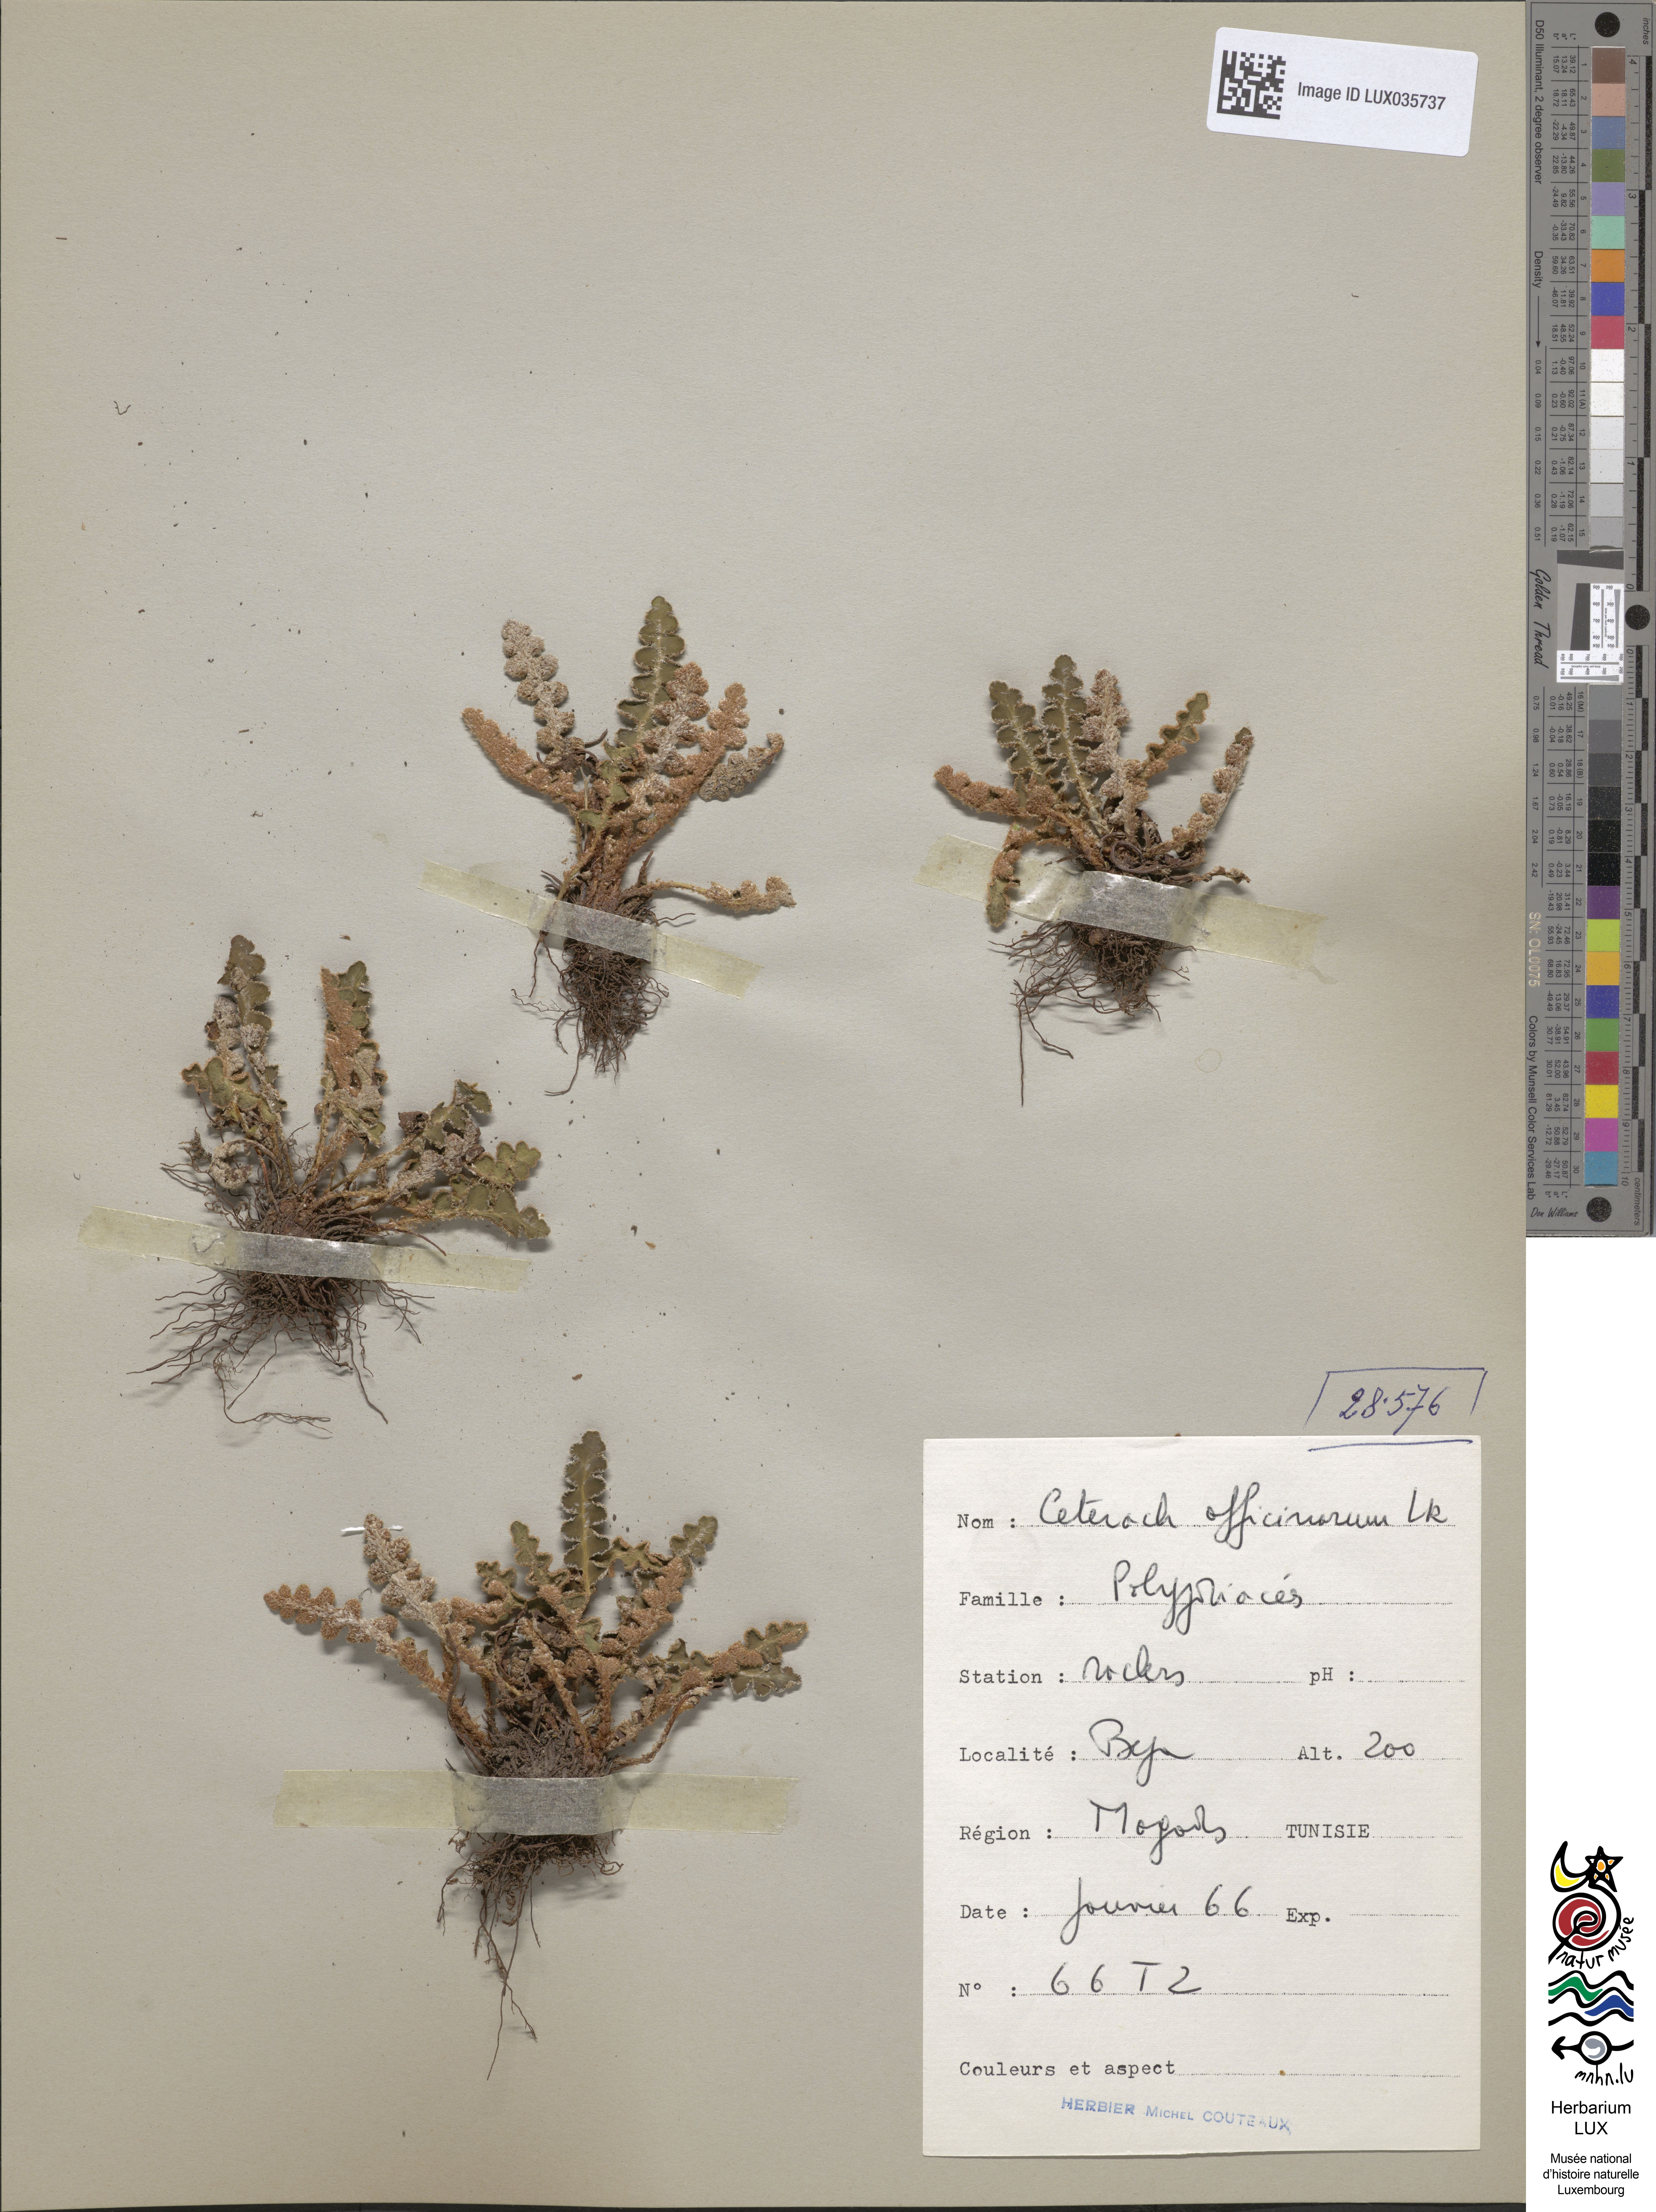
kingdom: Plantae
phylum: Tracheophyta
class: Polypodiopsida
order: Polypodiales
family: Aspleniaceae
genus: Asplenium
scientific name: Asplenium ceterach
